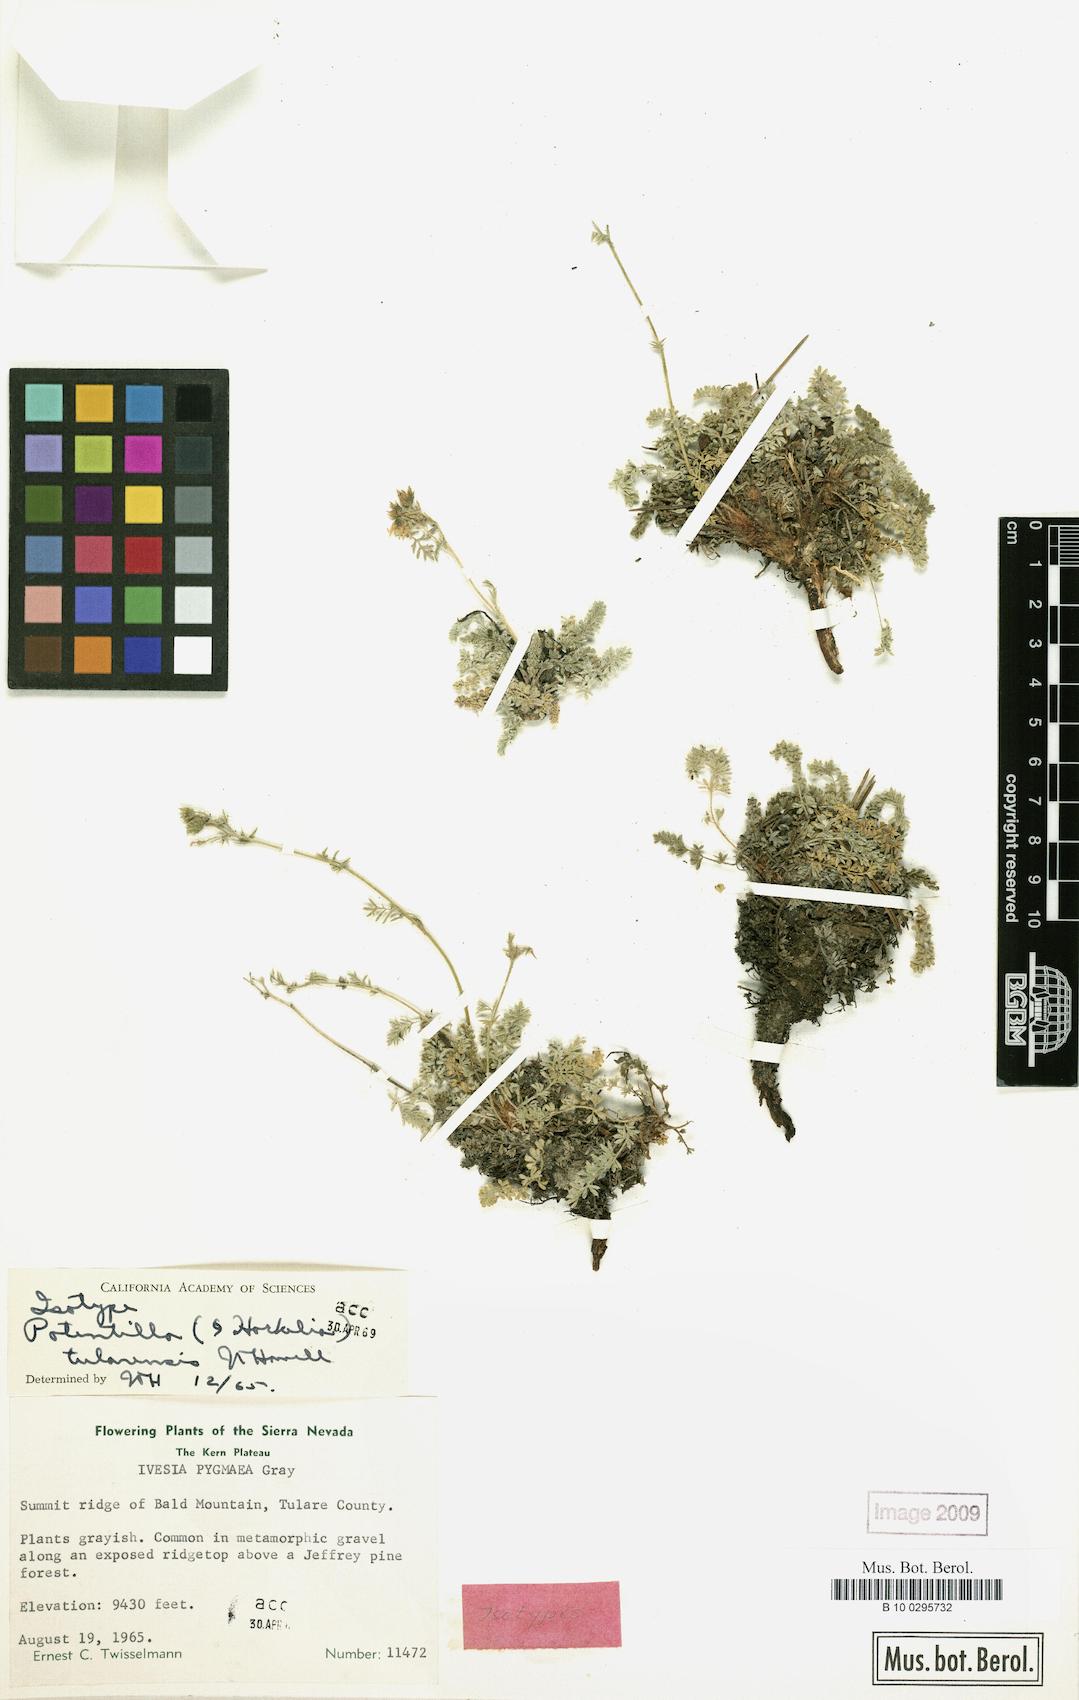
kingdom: Plantae
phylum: Tracheophyta
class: Magnoliopsida
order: Rosales
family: Rosaceae
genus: Potentilla
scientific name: Potentilla tularensis
